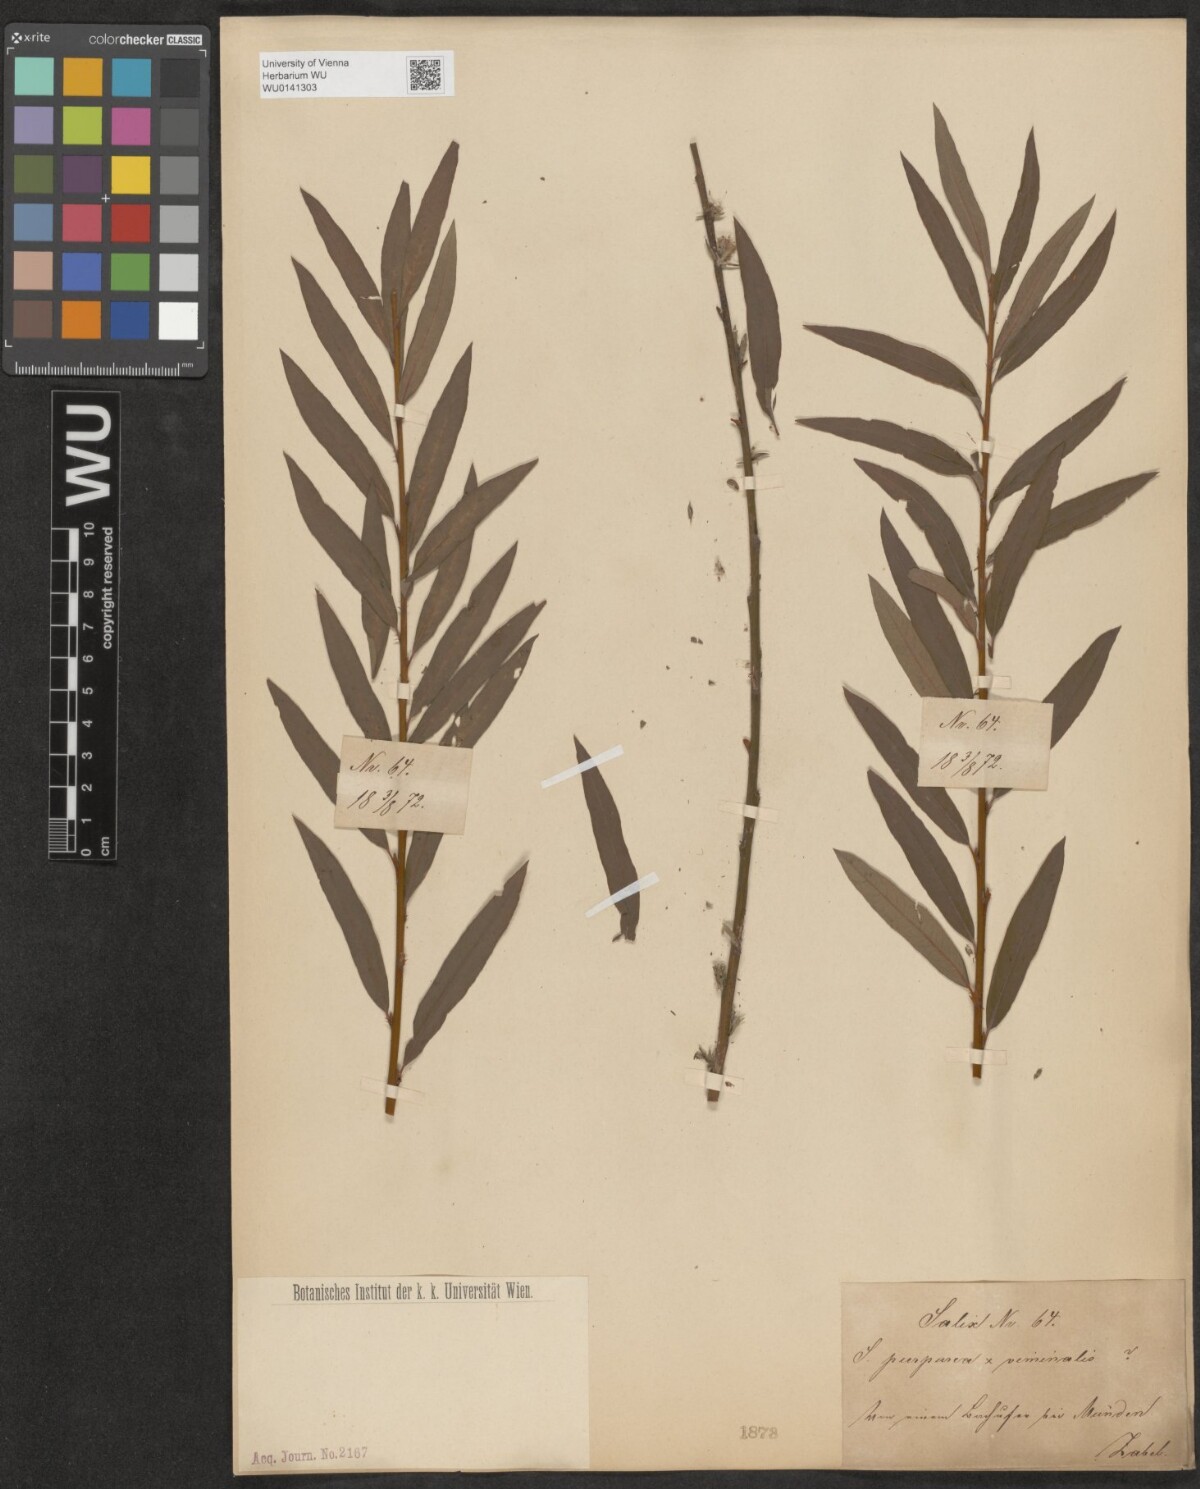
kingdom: Plantae
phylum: Tracheophyta
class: Magnoliopsida
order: Malpighiales
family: Salicaceae
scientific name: Salicaceae
